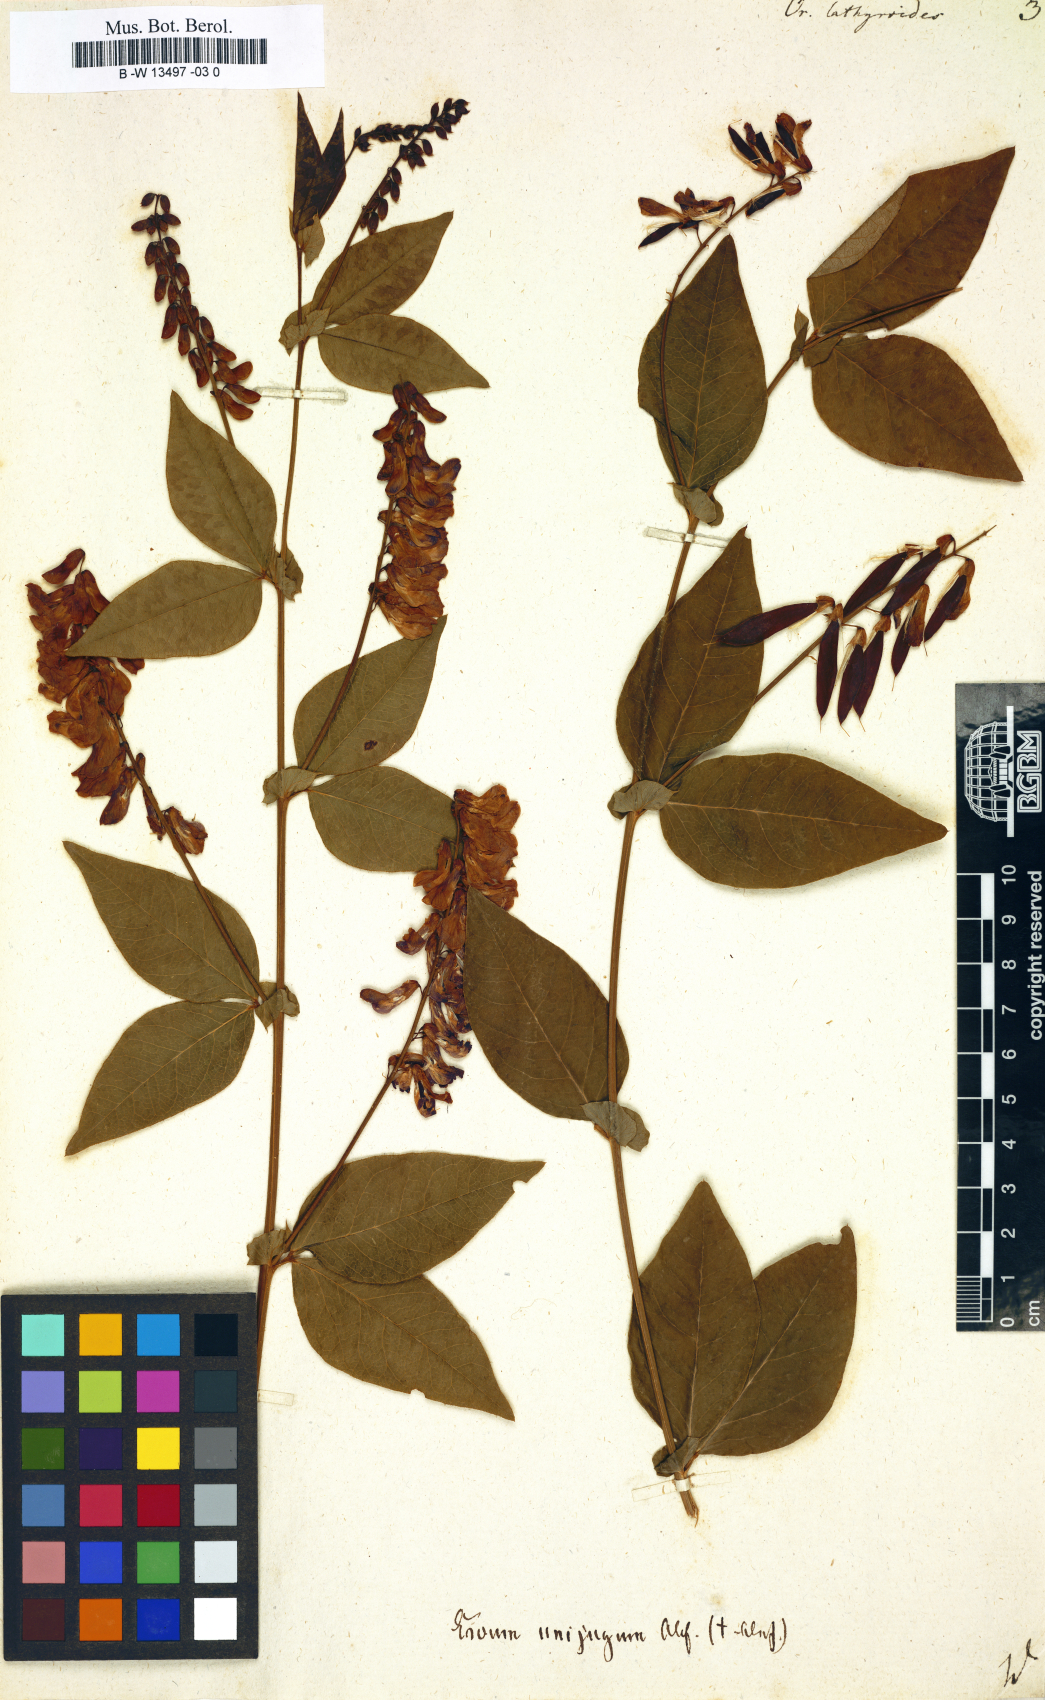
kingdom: Plantae
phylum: Tracheophyta
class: Magnoliopsida
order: Fabales
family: Fabaceae
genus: Vicia
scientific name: Vicia unijuga
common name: Two-leaf vetch
